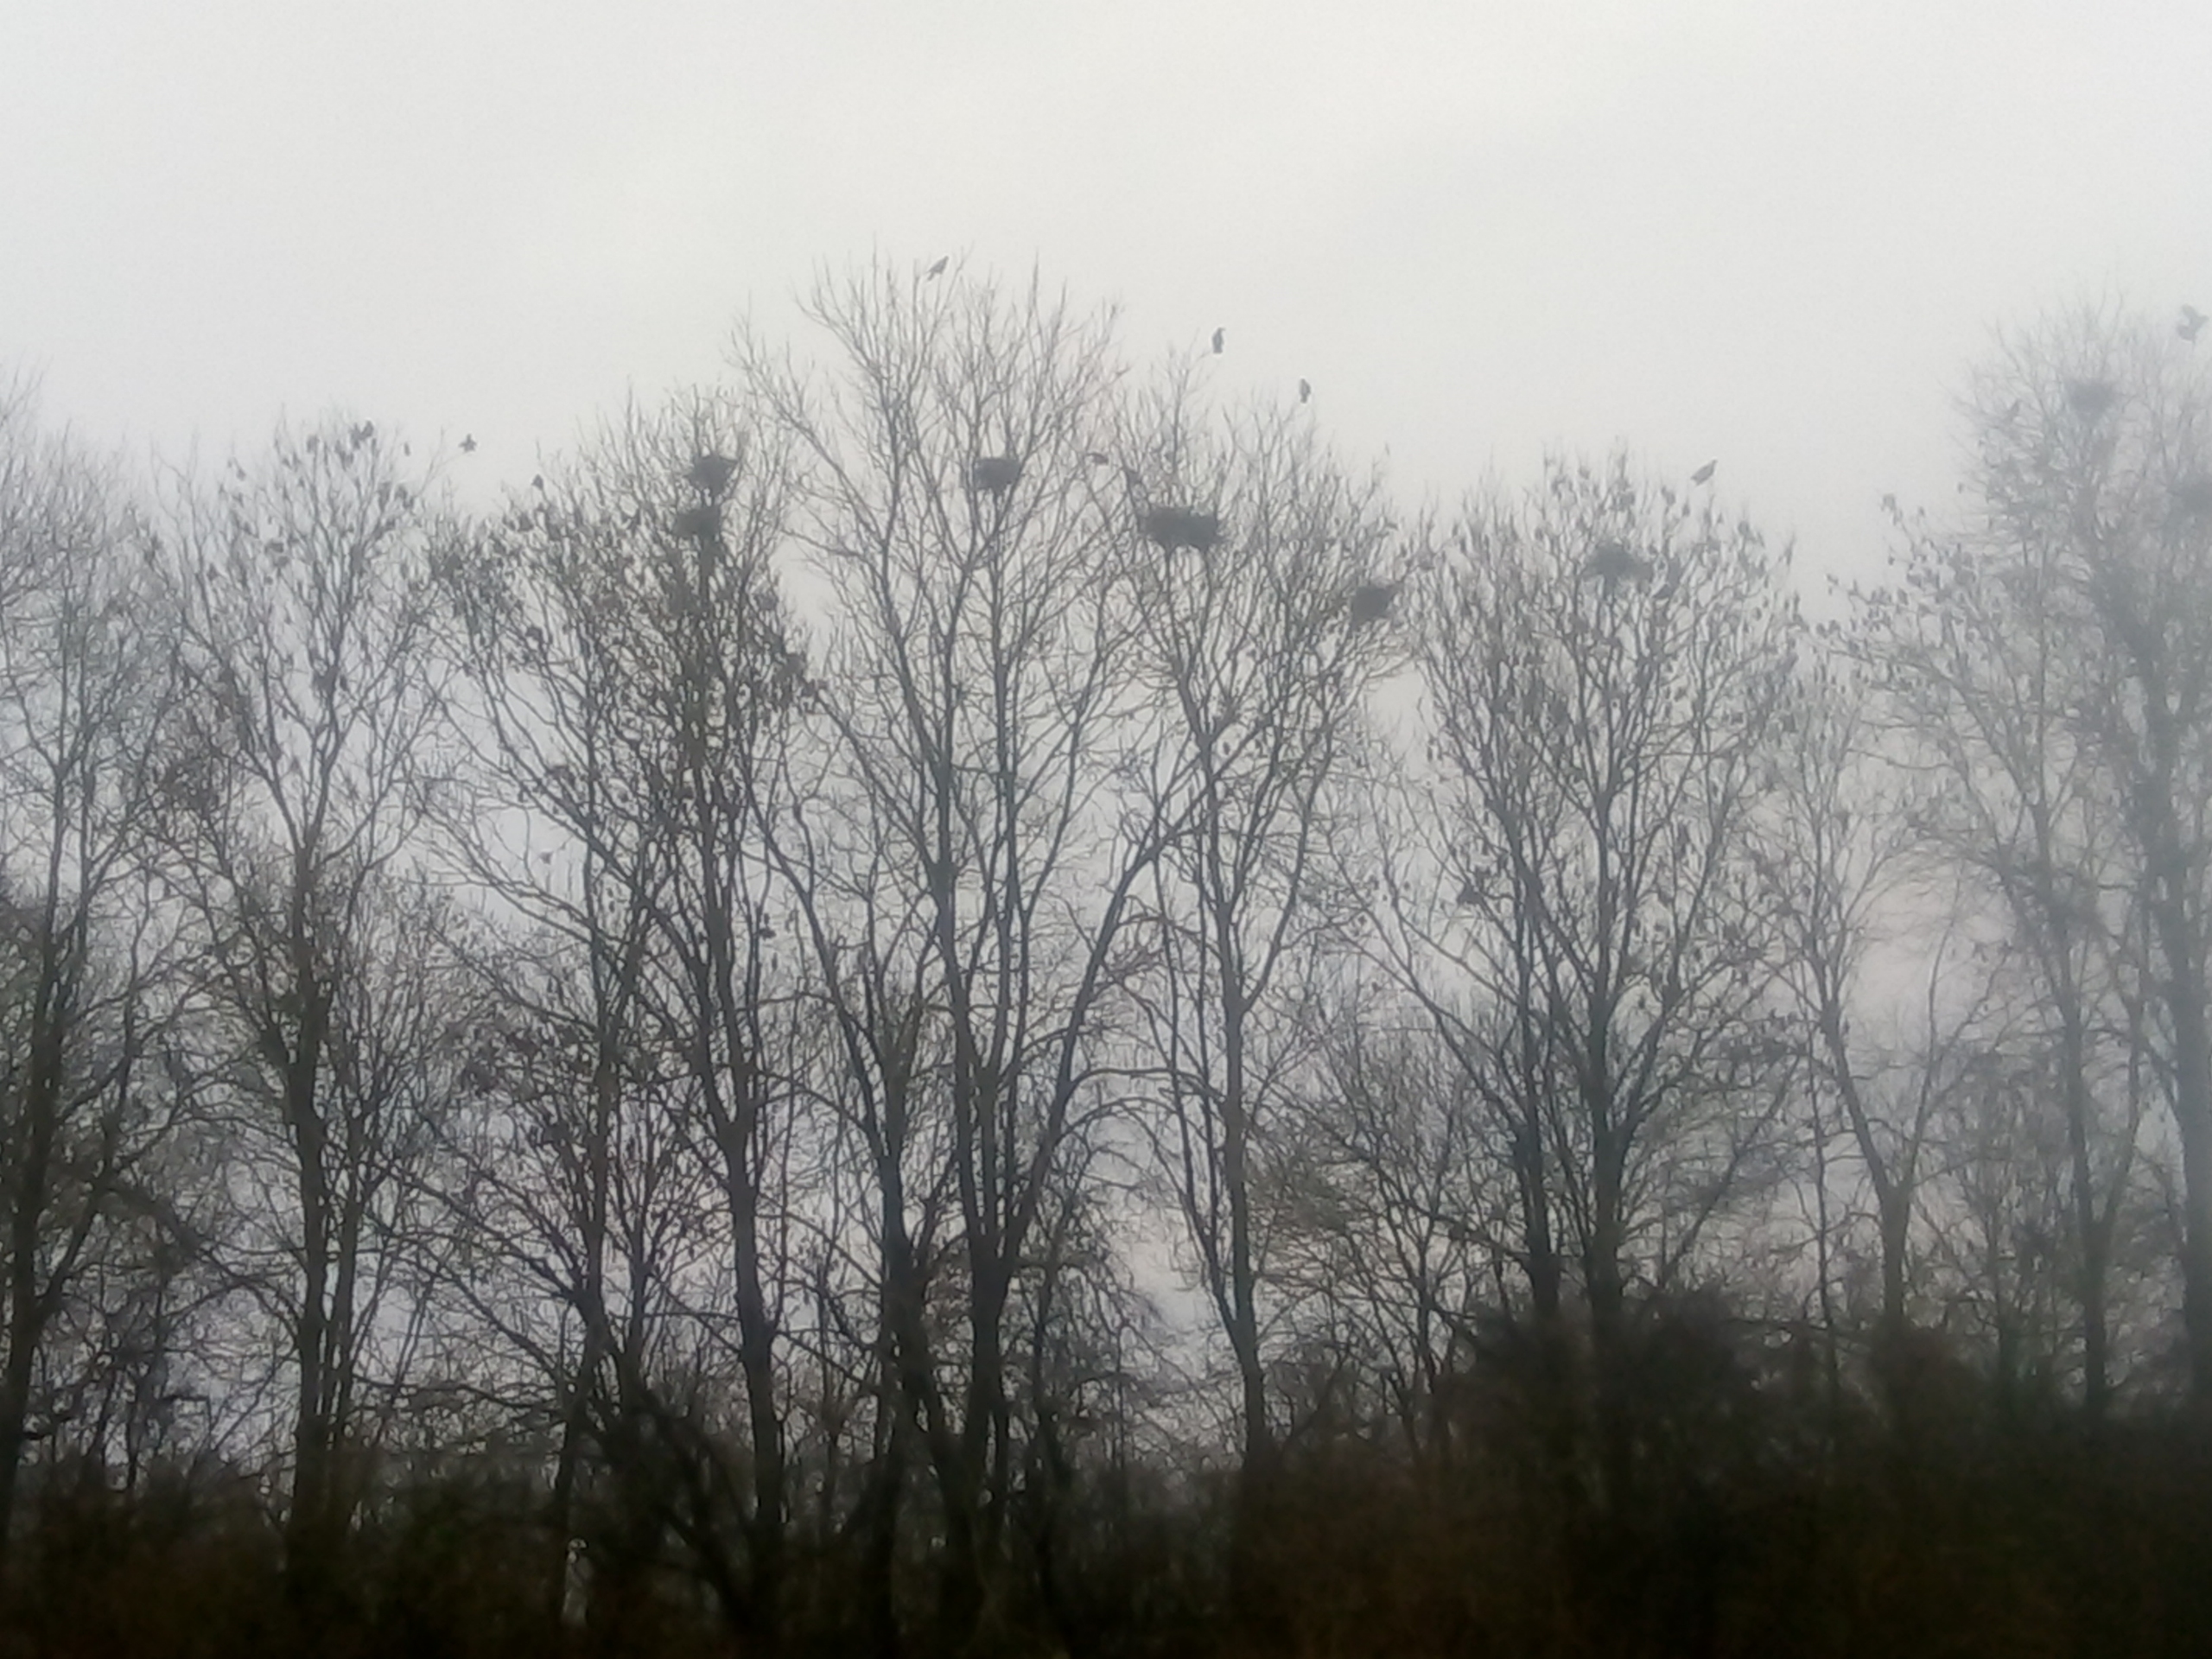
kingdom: Animalia
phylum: Chordata
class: Aves
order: Passeriformes
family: Corvidae
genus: Corvus
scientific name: Corvus frugilegus
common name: Råge
